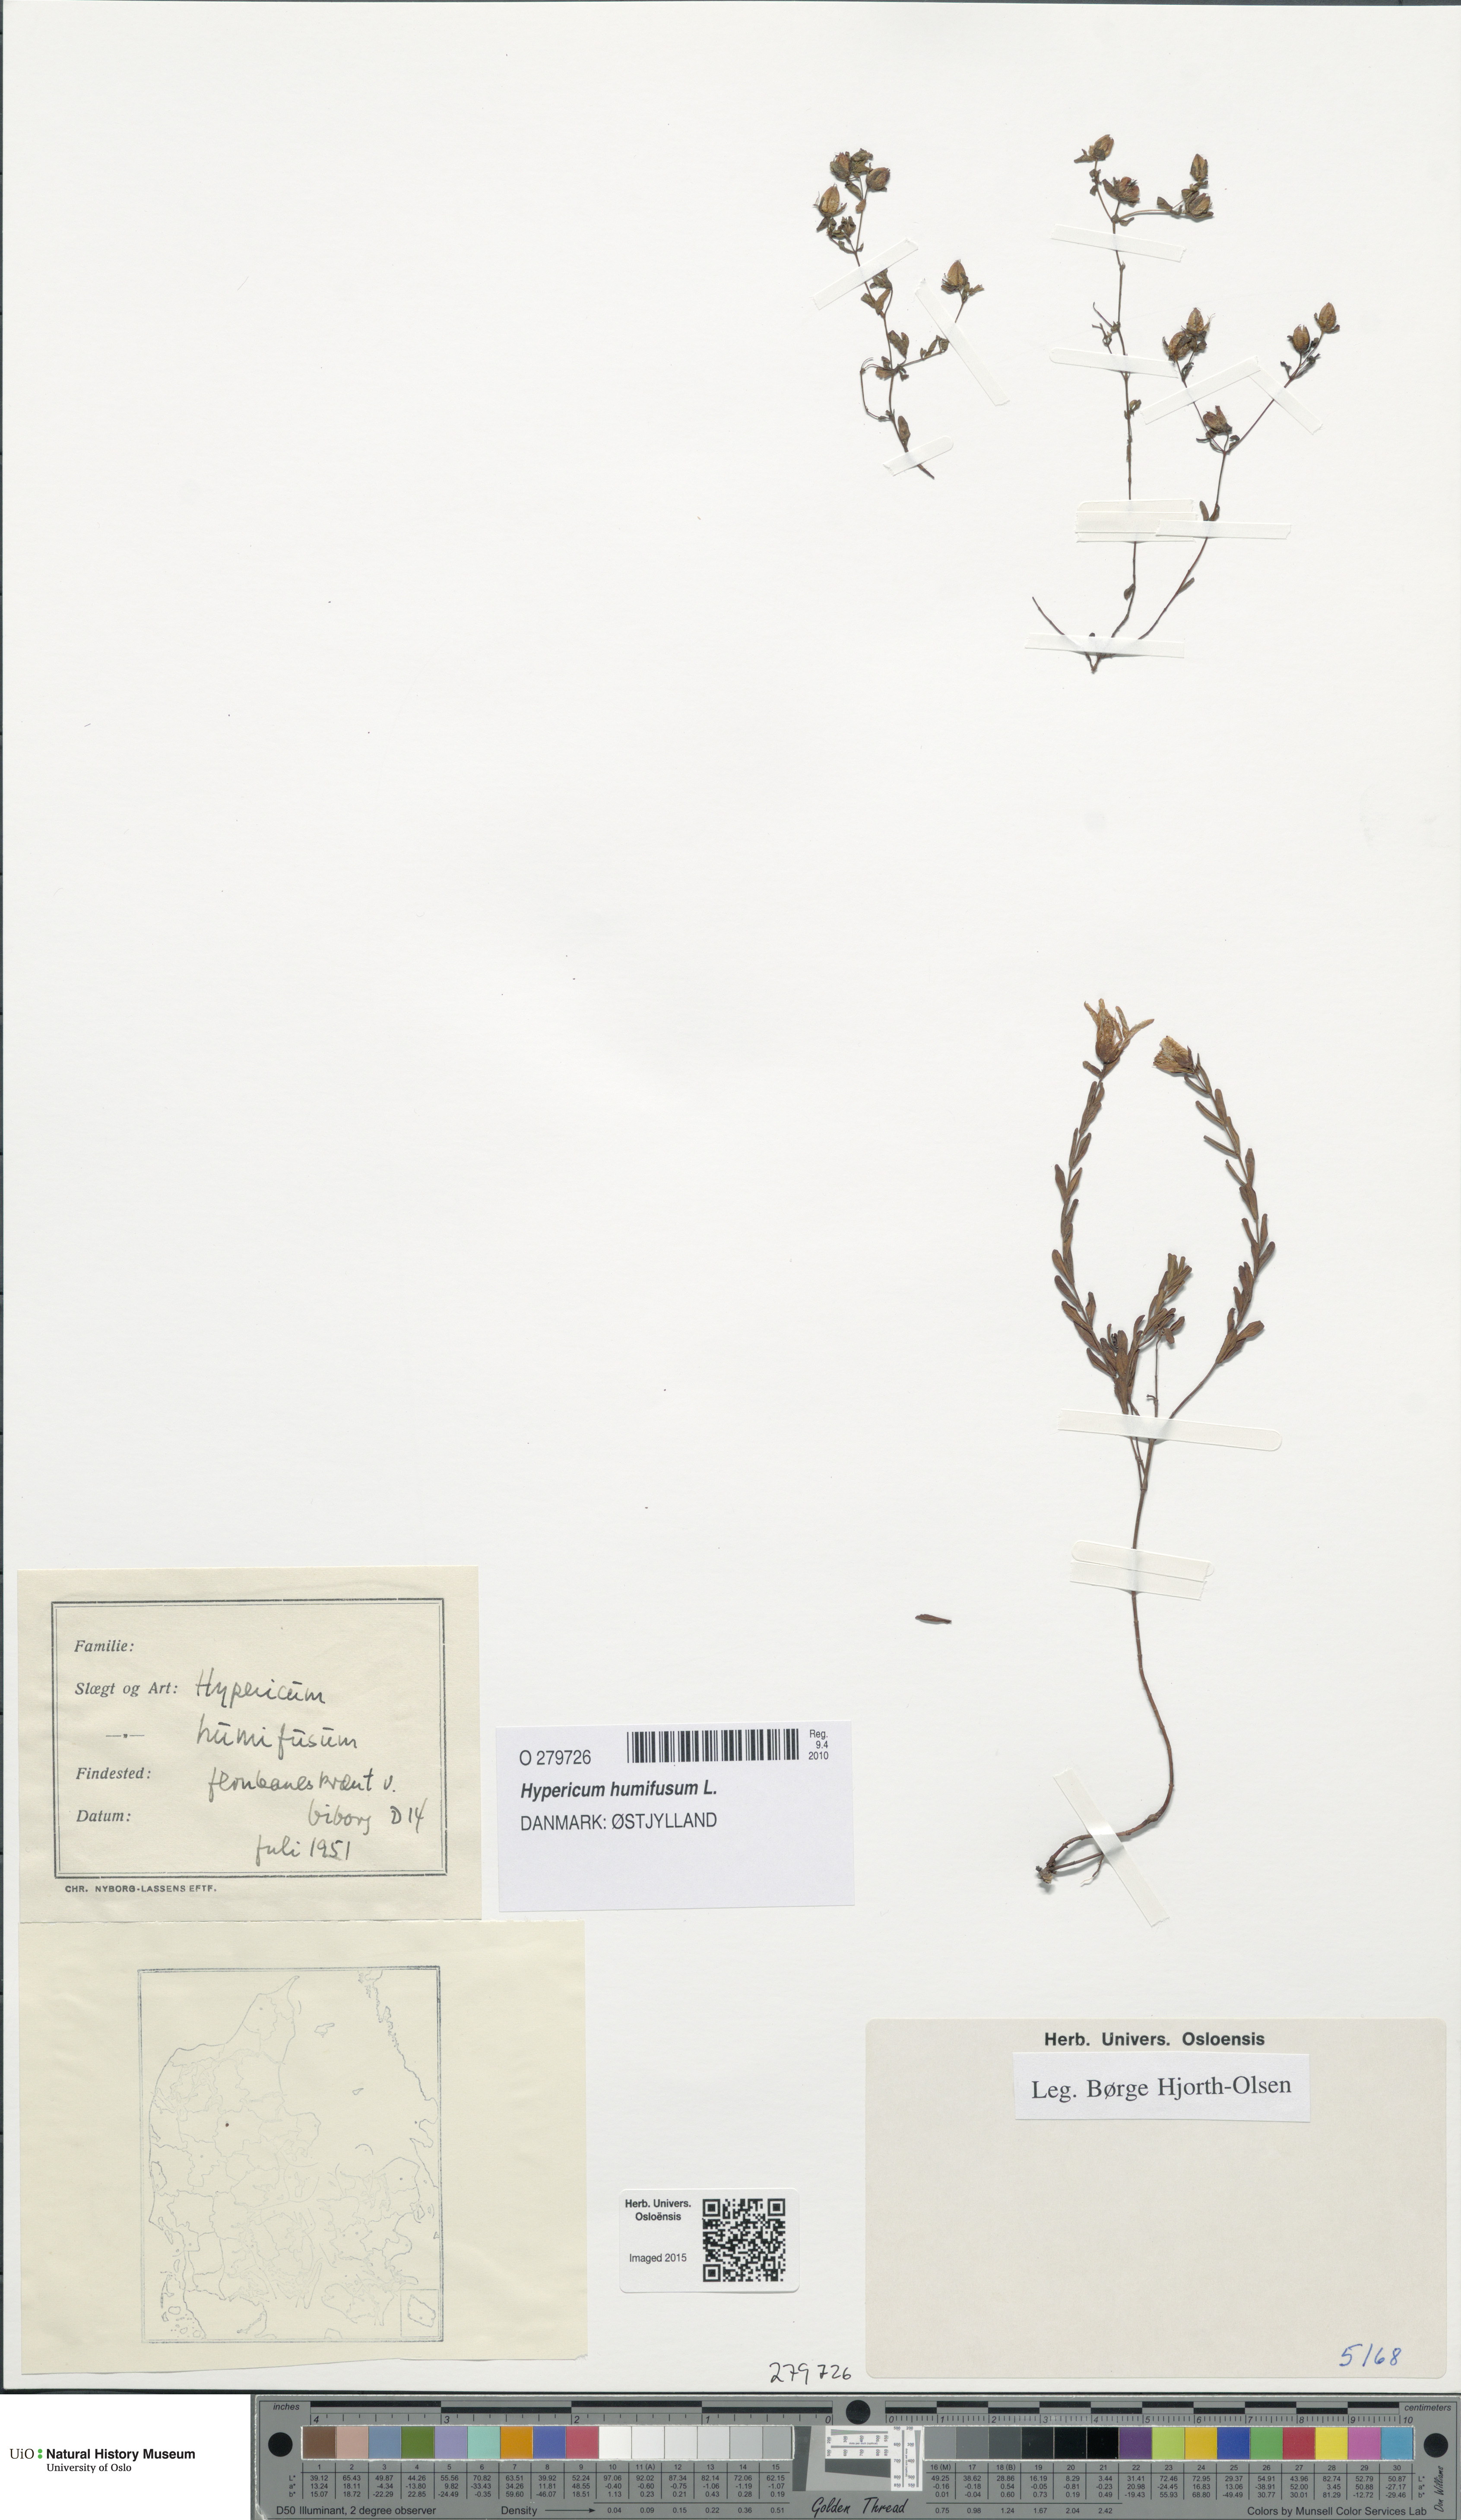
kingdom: Plantae
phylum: Tracheophyta
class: Magnoliopsida
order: Malpighiales
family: Hypericaceae
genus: Hypericum
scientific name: Hypericum humifusum
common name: Trailing st. john's-wort
